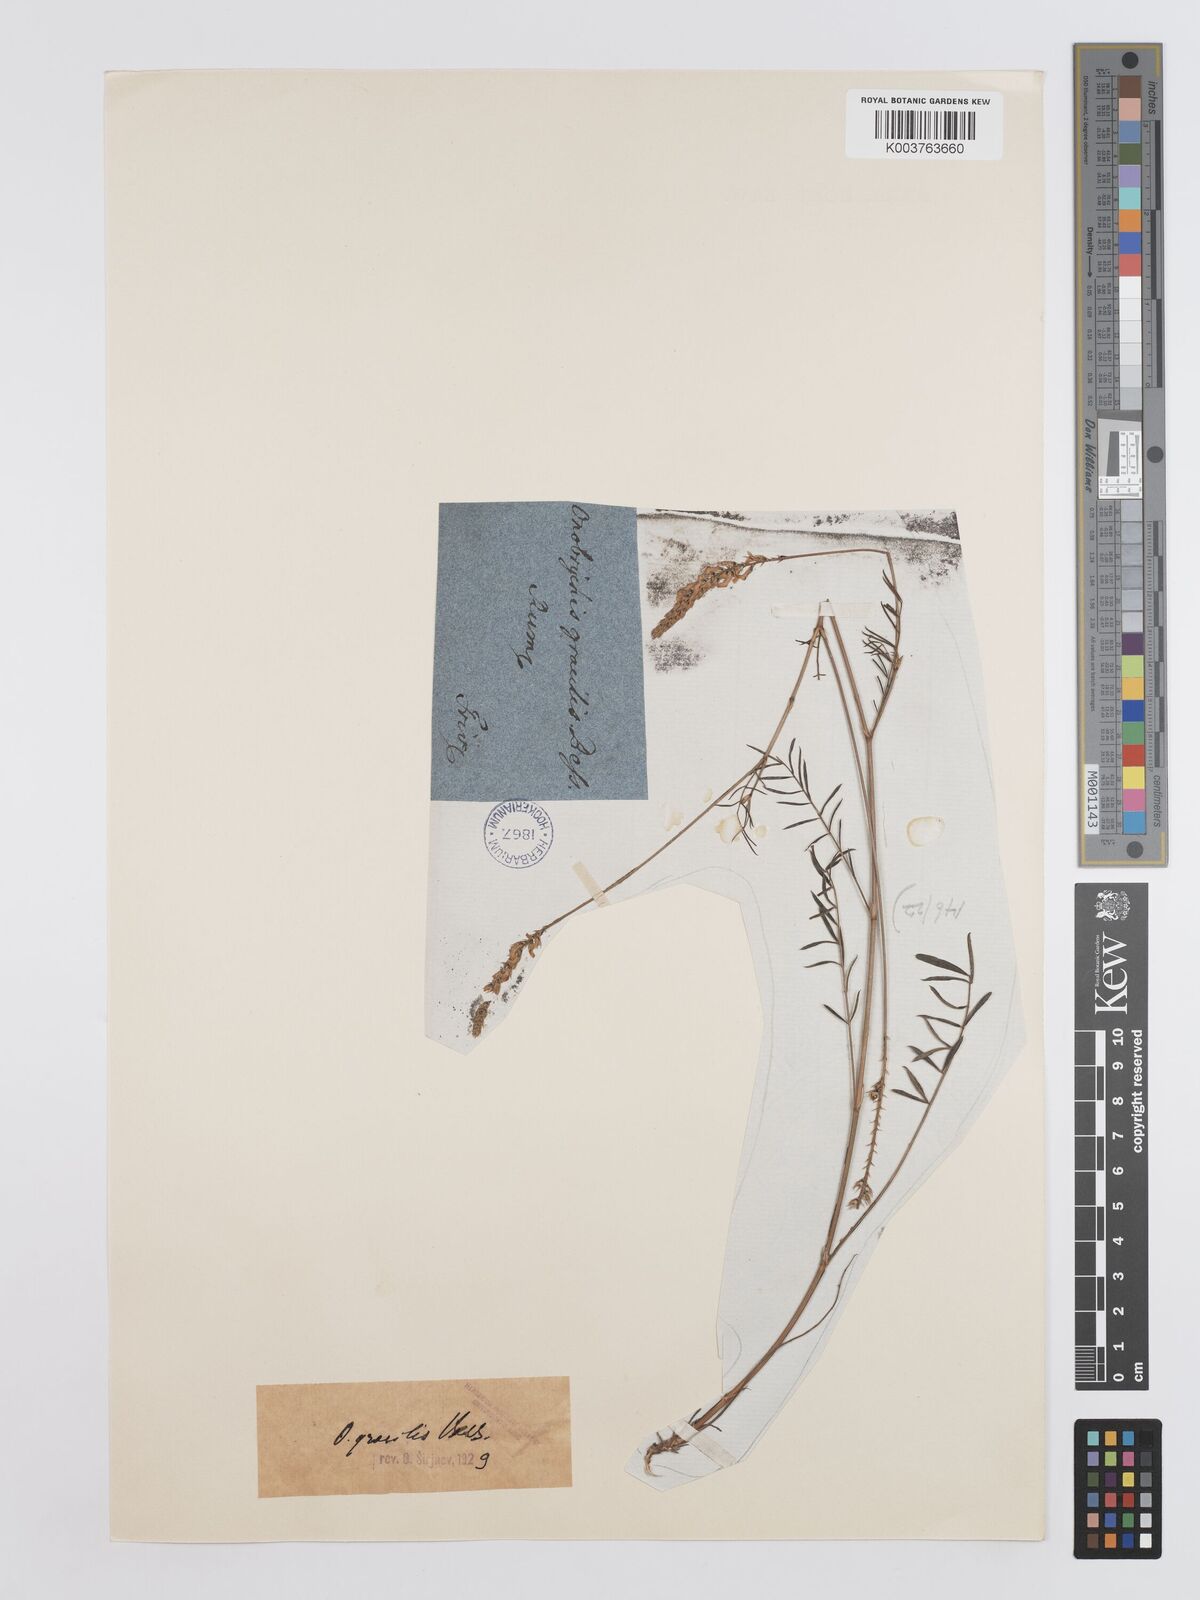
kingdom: Plantae
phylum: Tracheophyta
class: Magnoliopsida
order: Fabales
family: Fabaceae
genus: Onobrychis
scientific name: Onobrychis gracilis
